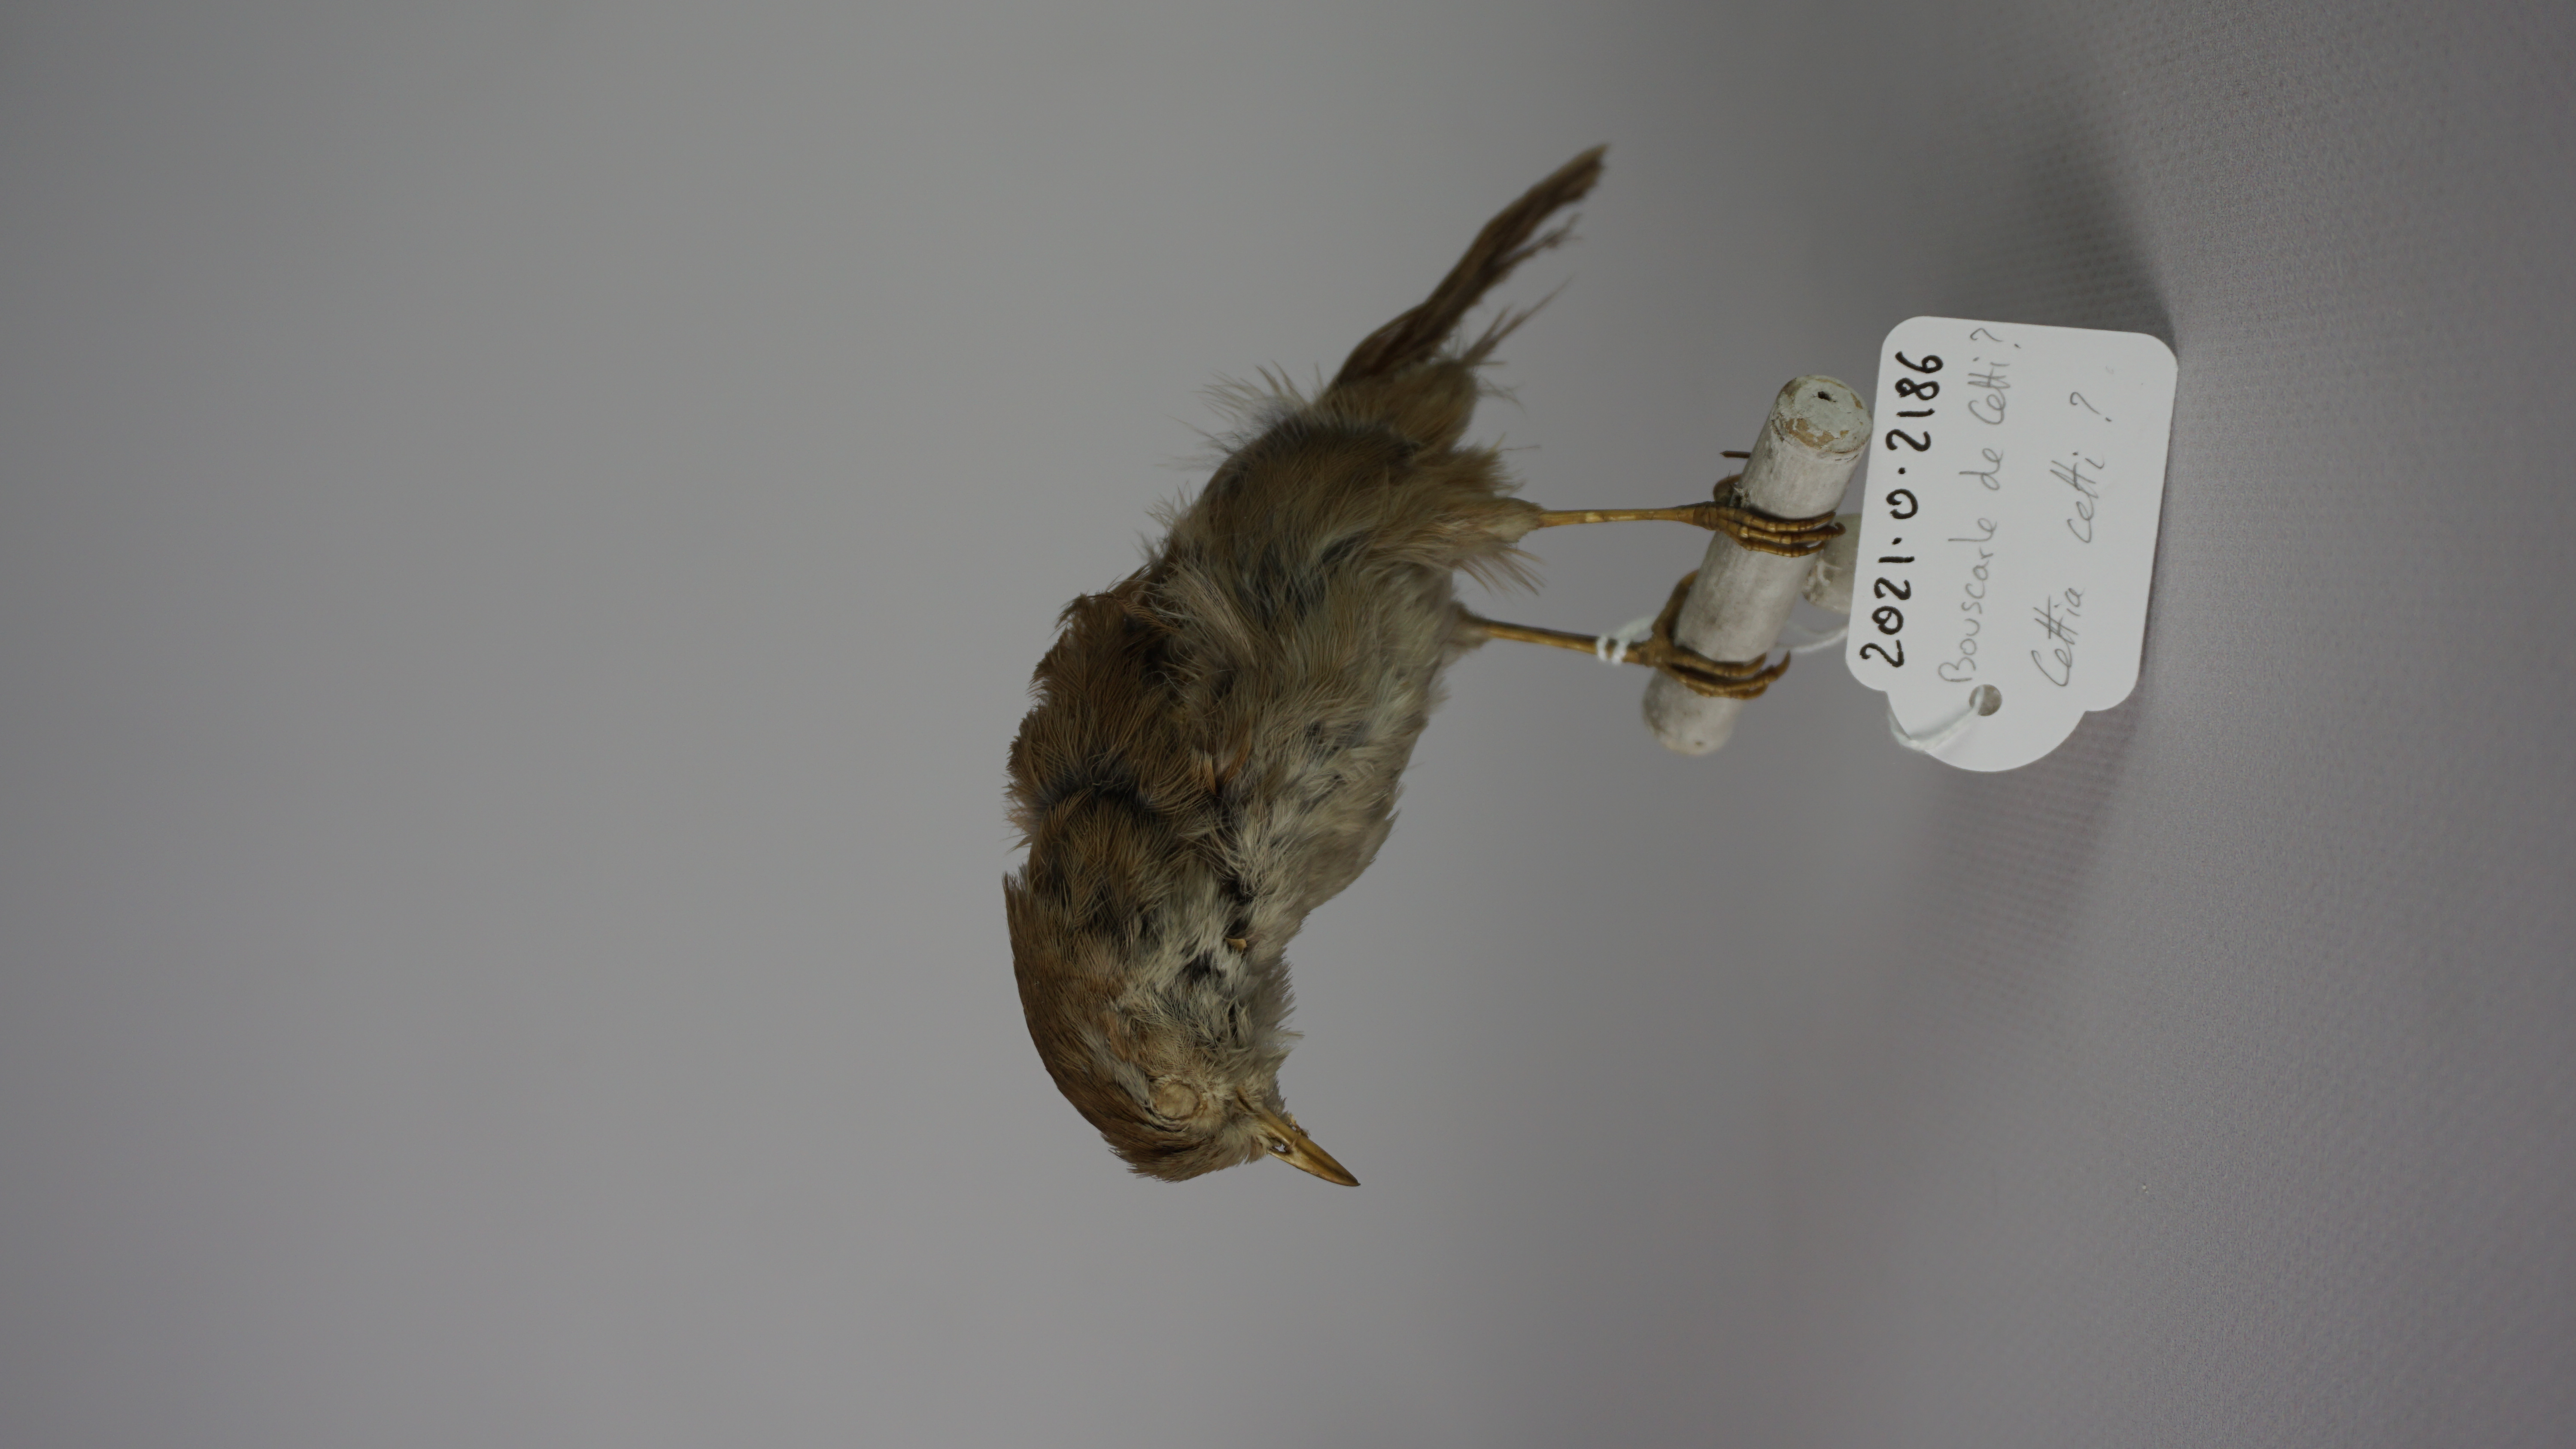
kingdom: Animalia
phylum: Chordata
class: Aves
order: Passeriformes
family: Cettiidae
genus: Cettia
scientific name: Cettia cetti
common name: Cetti's warbler
